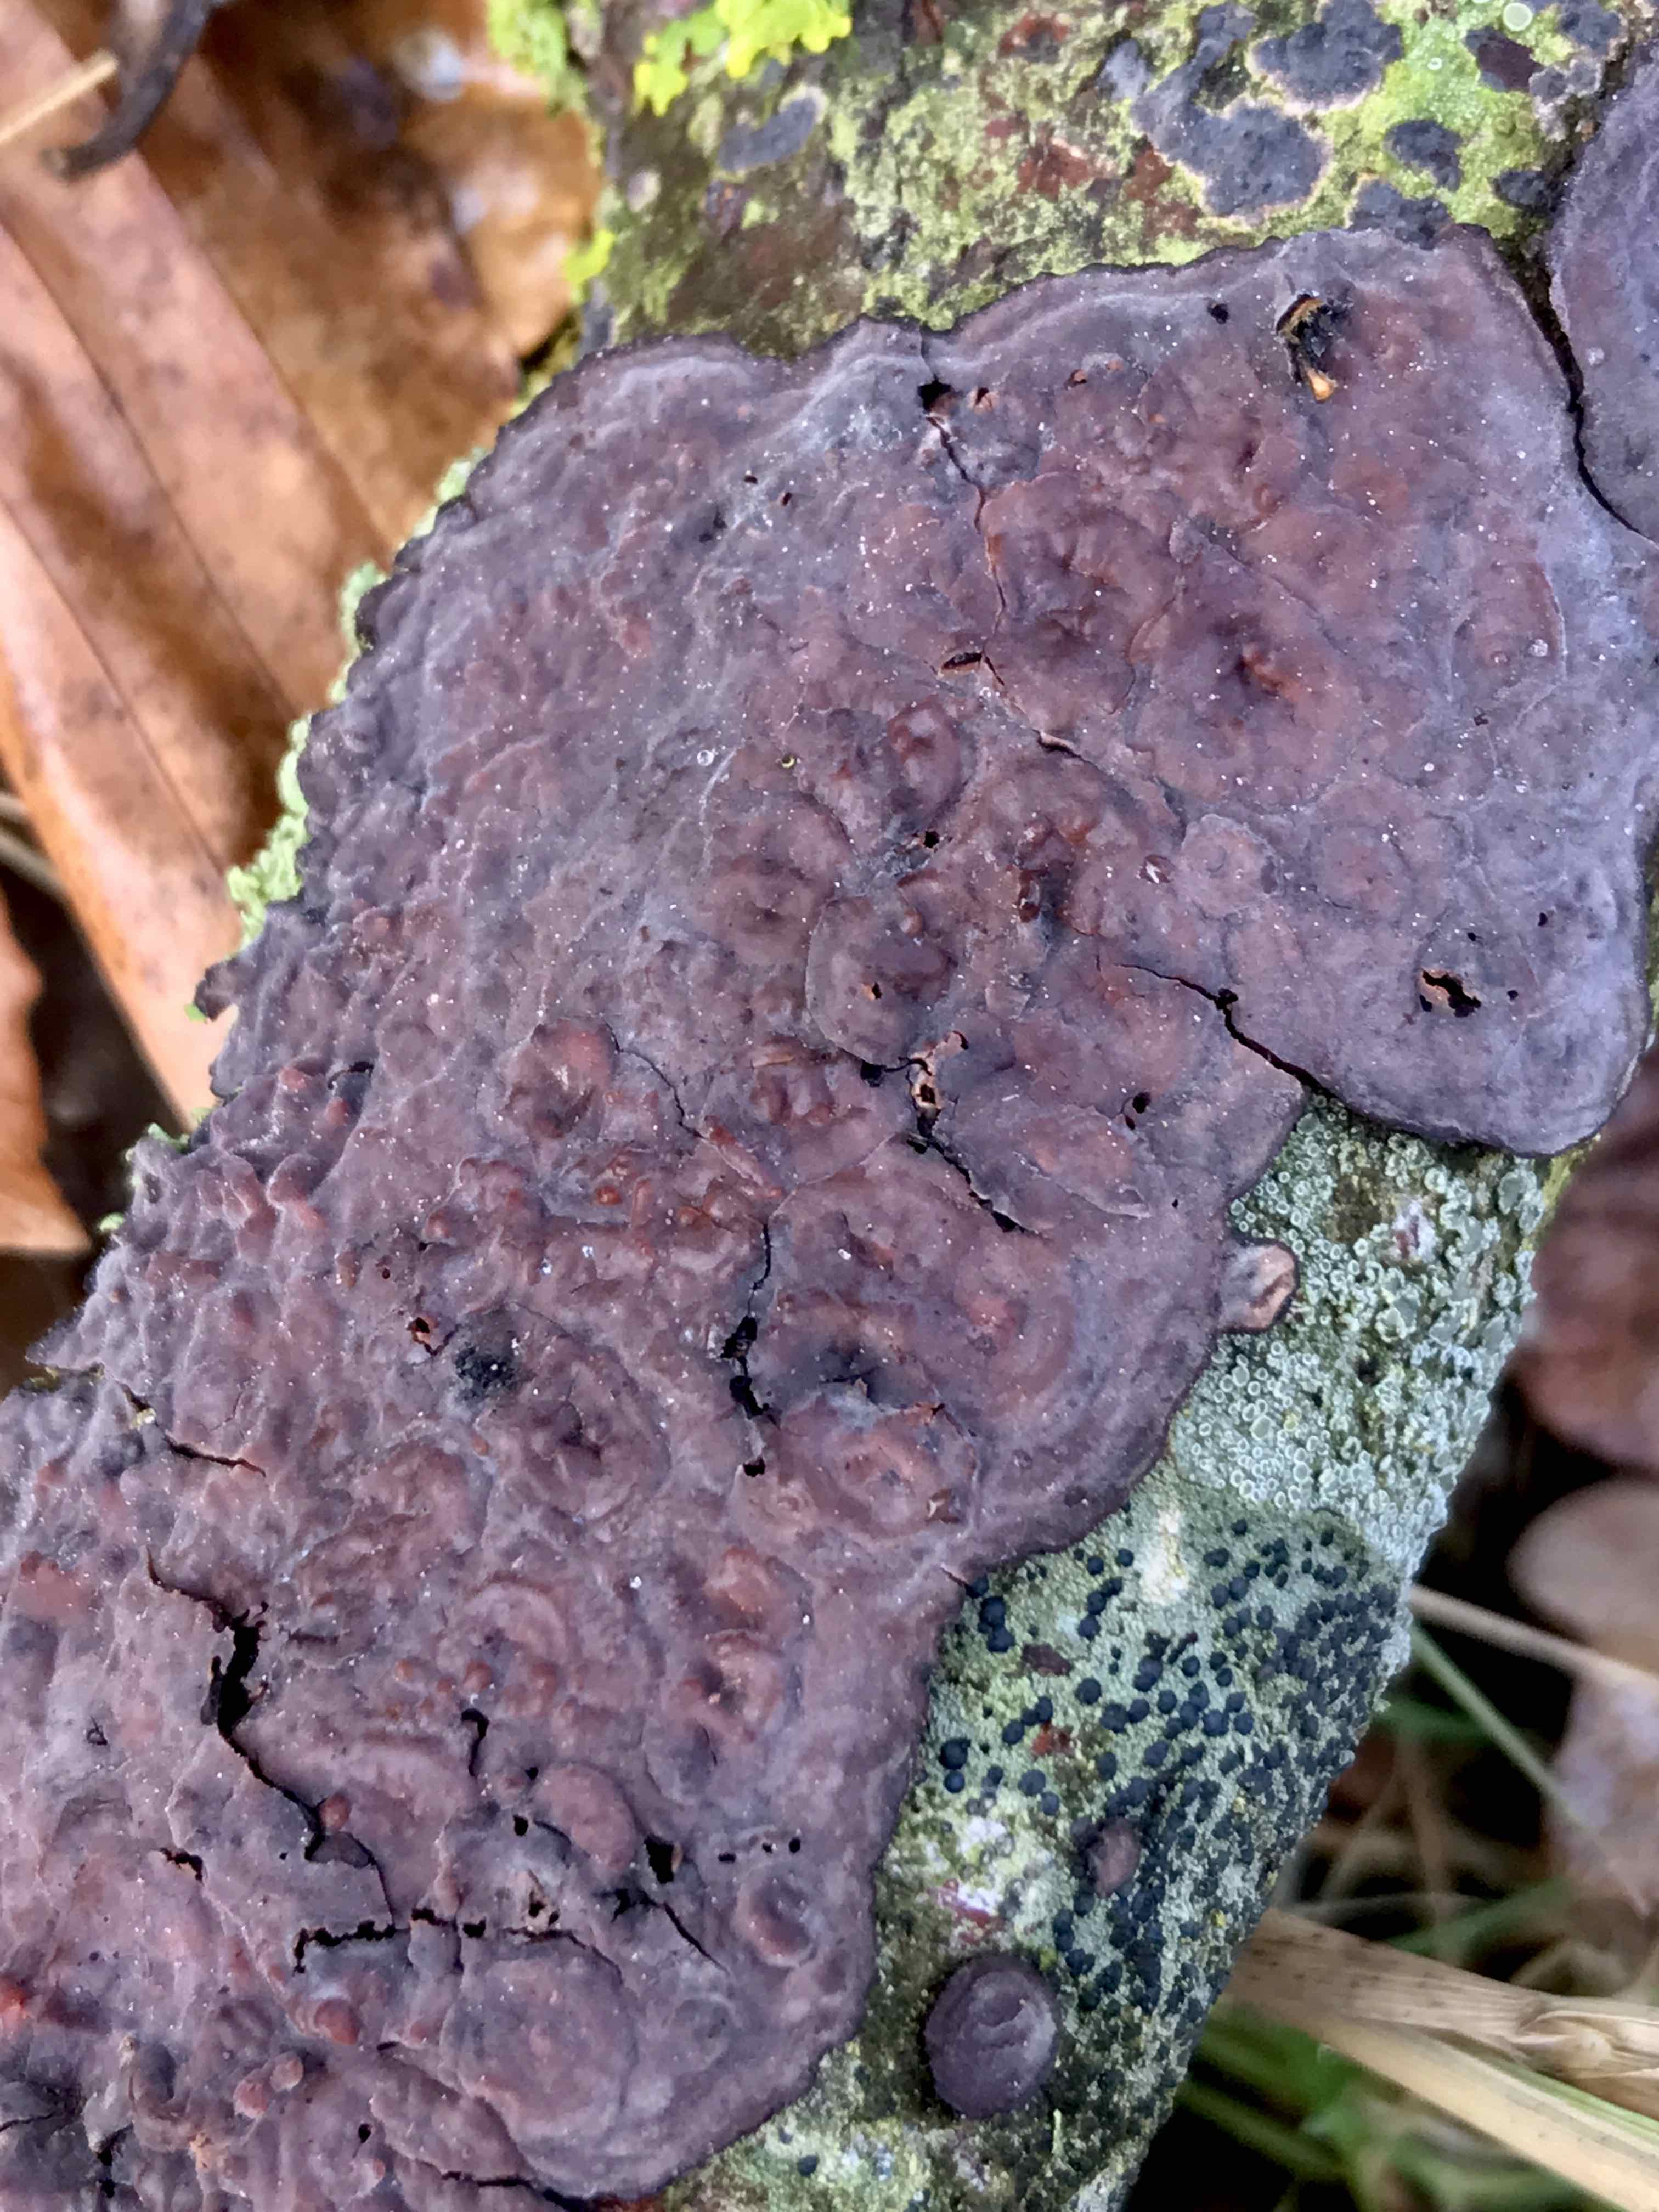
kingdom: Fungi
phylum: Basidiomycota
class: Agaricomycetes
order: Russulales
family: Peniophoraceae
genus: Peniophora
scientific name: Peniophora quercina
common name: ege-voksskind
